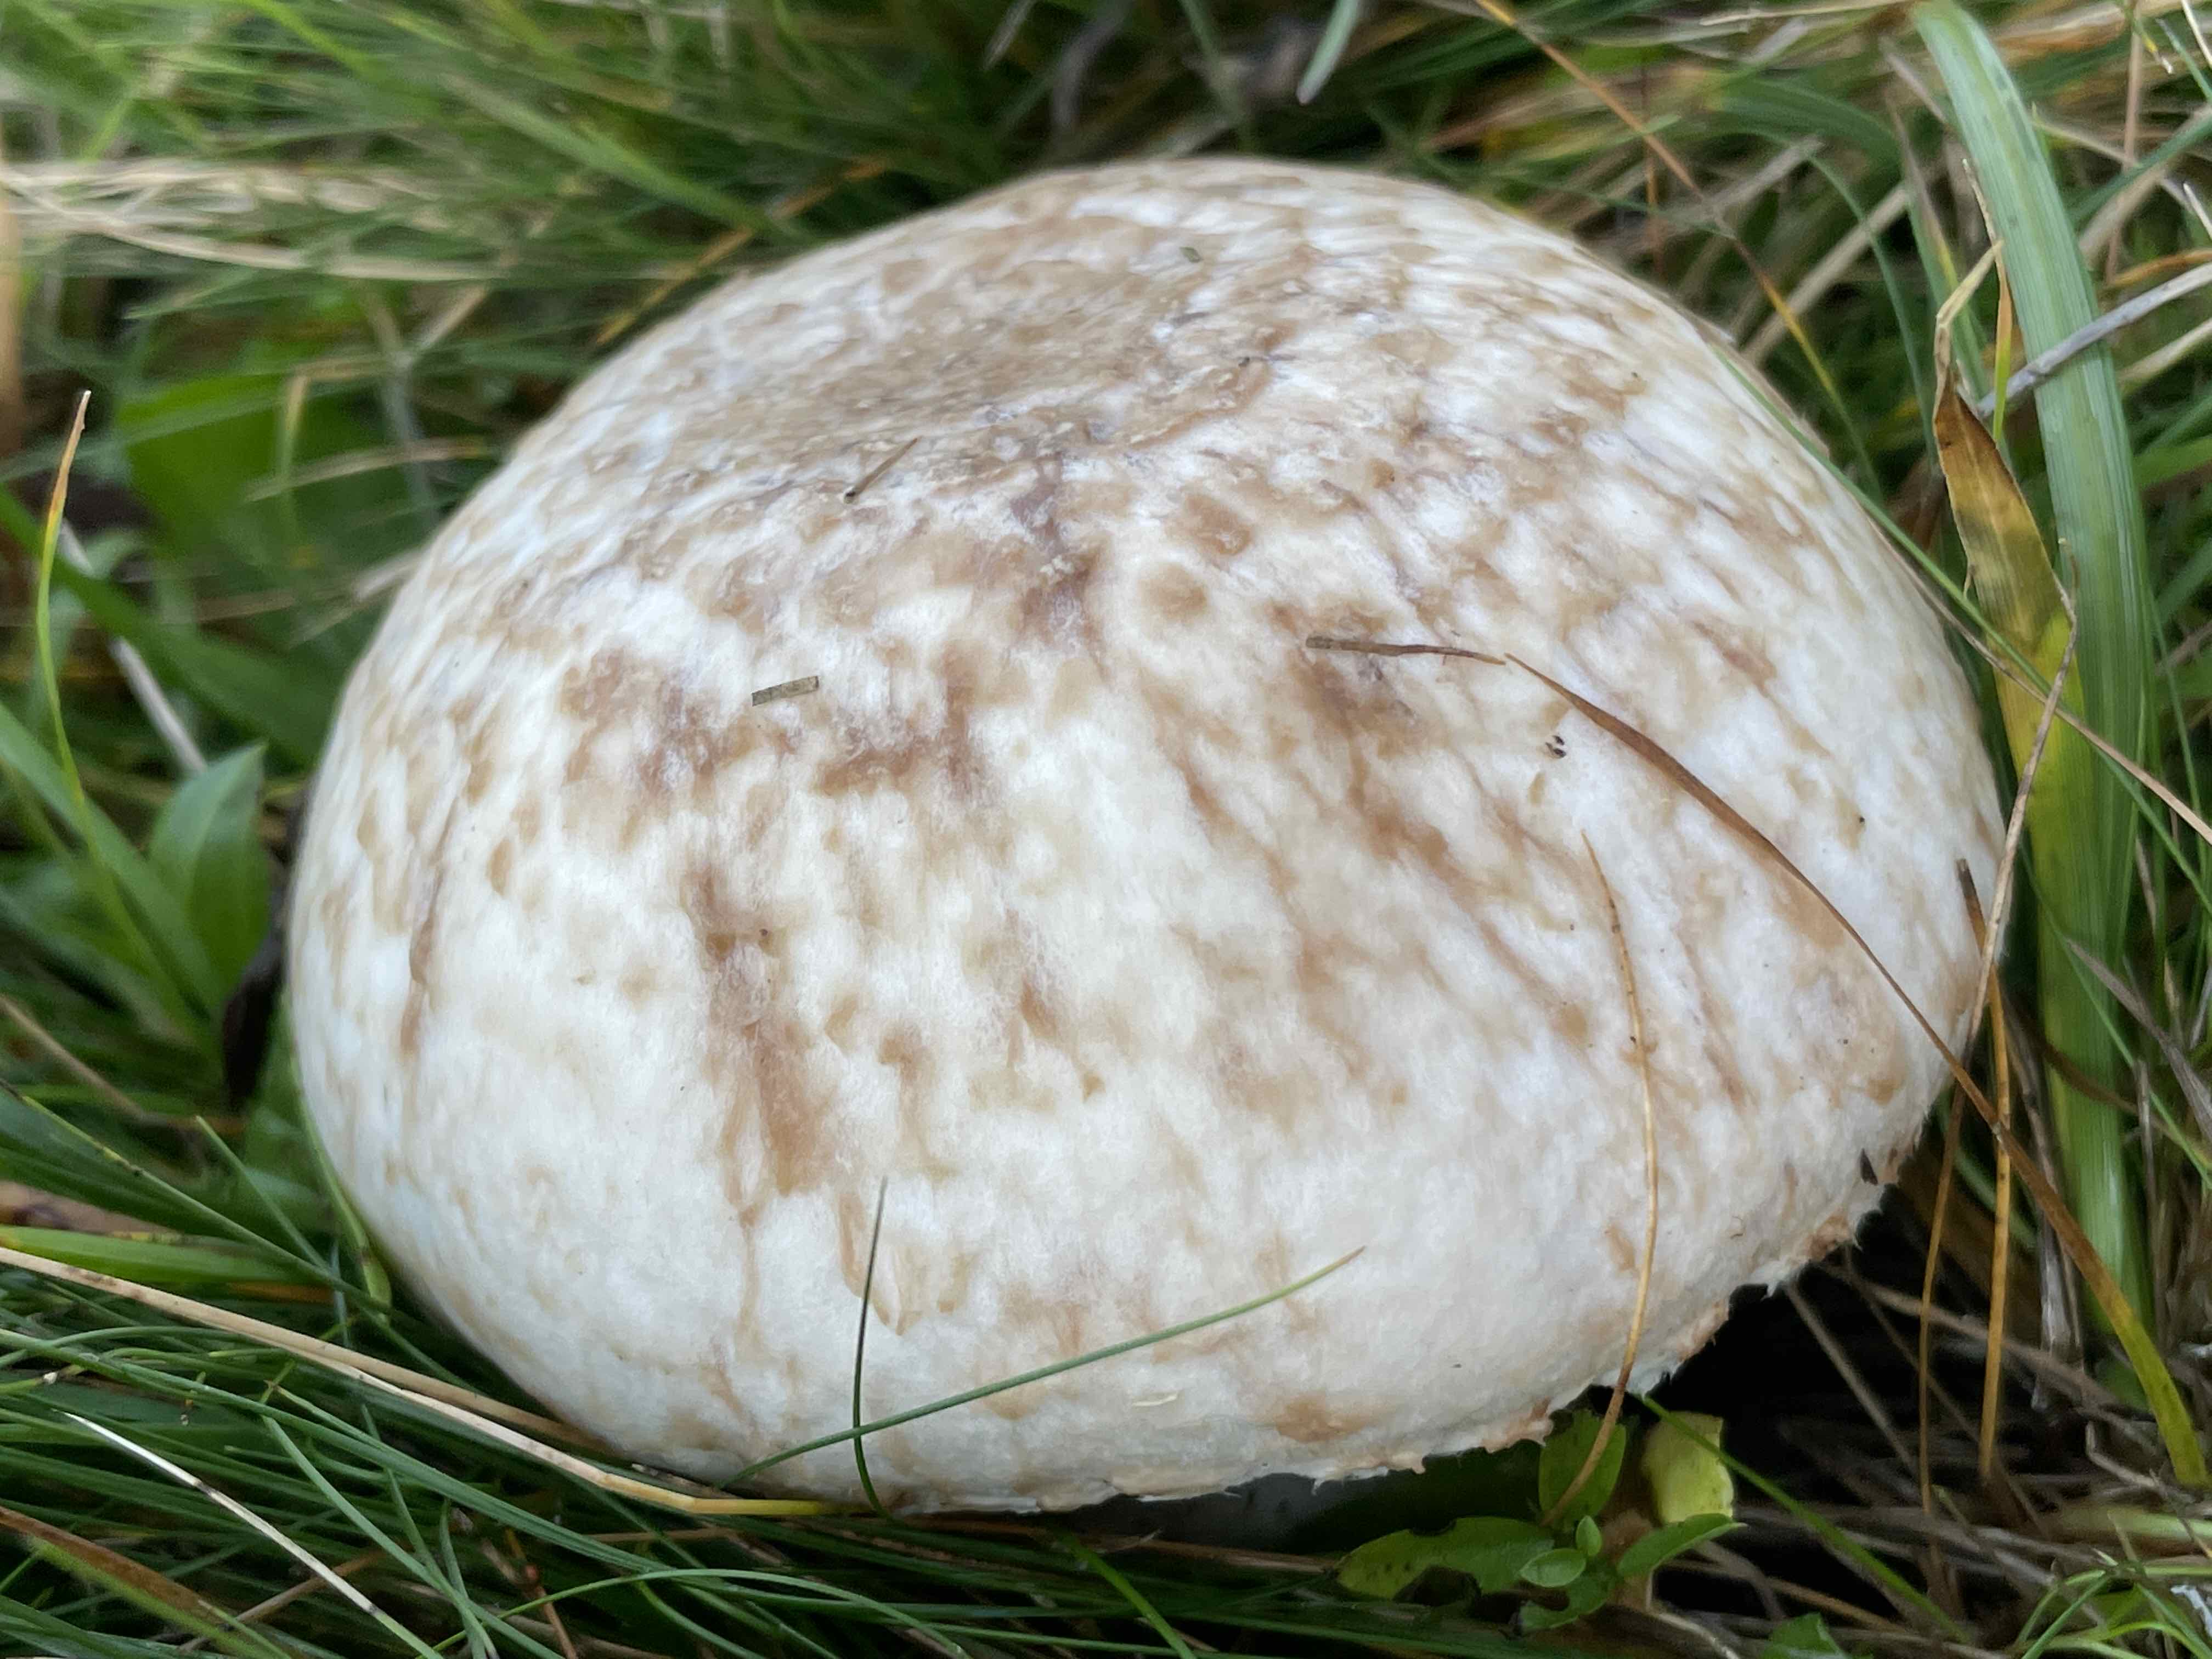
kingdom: Fungi
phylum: Basidiomycota
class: Agaricomycetes
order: Agaricales
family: Agaricaceae
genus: Agaricus
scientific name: Agaricus
